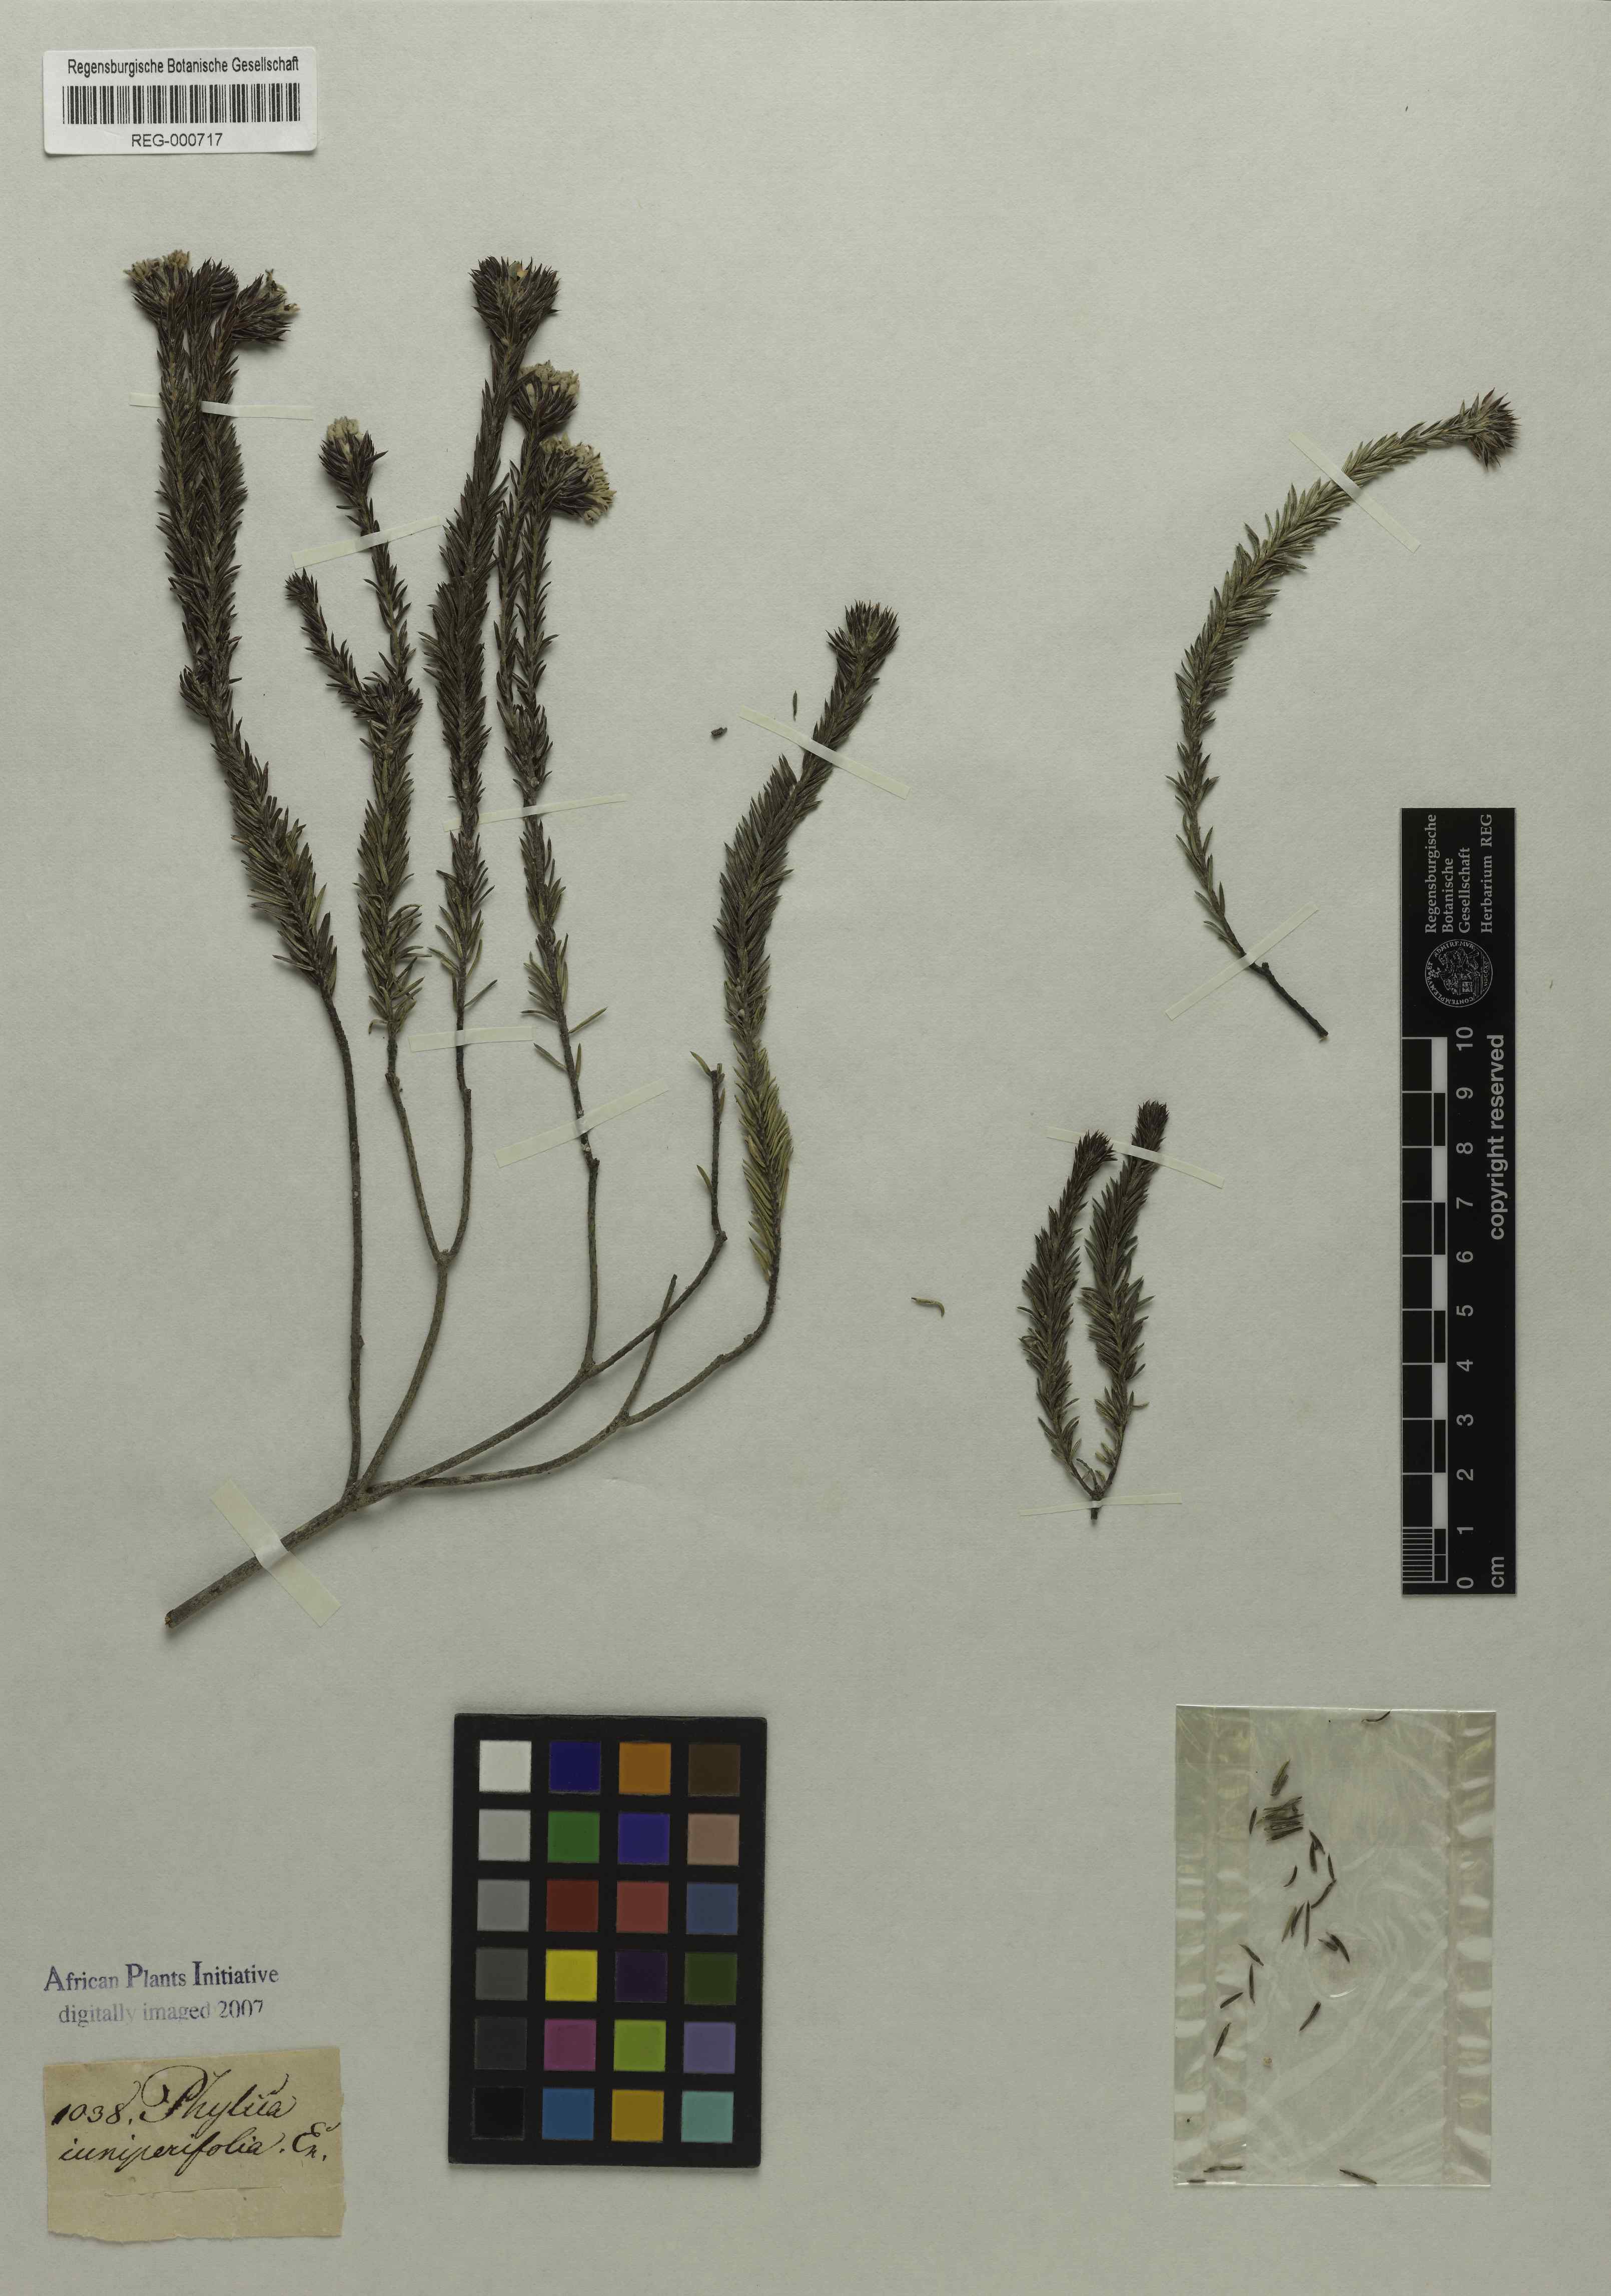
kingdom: Plantae
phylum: Tracheophyta
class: Magnoliopsida
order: Rosales
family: Rhamnaceae
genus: Phylica
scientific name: Phylica gnidioides
